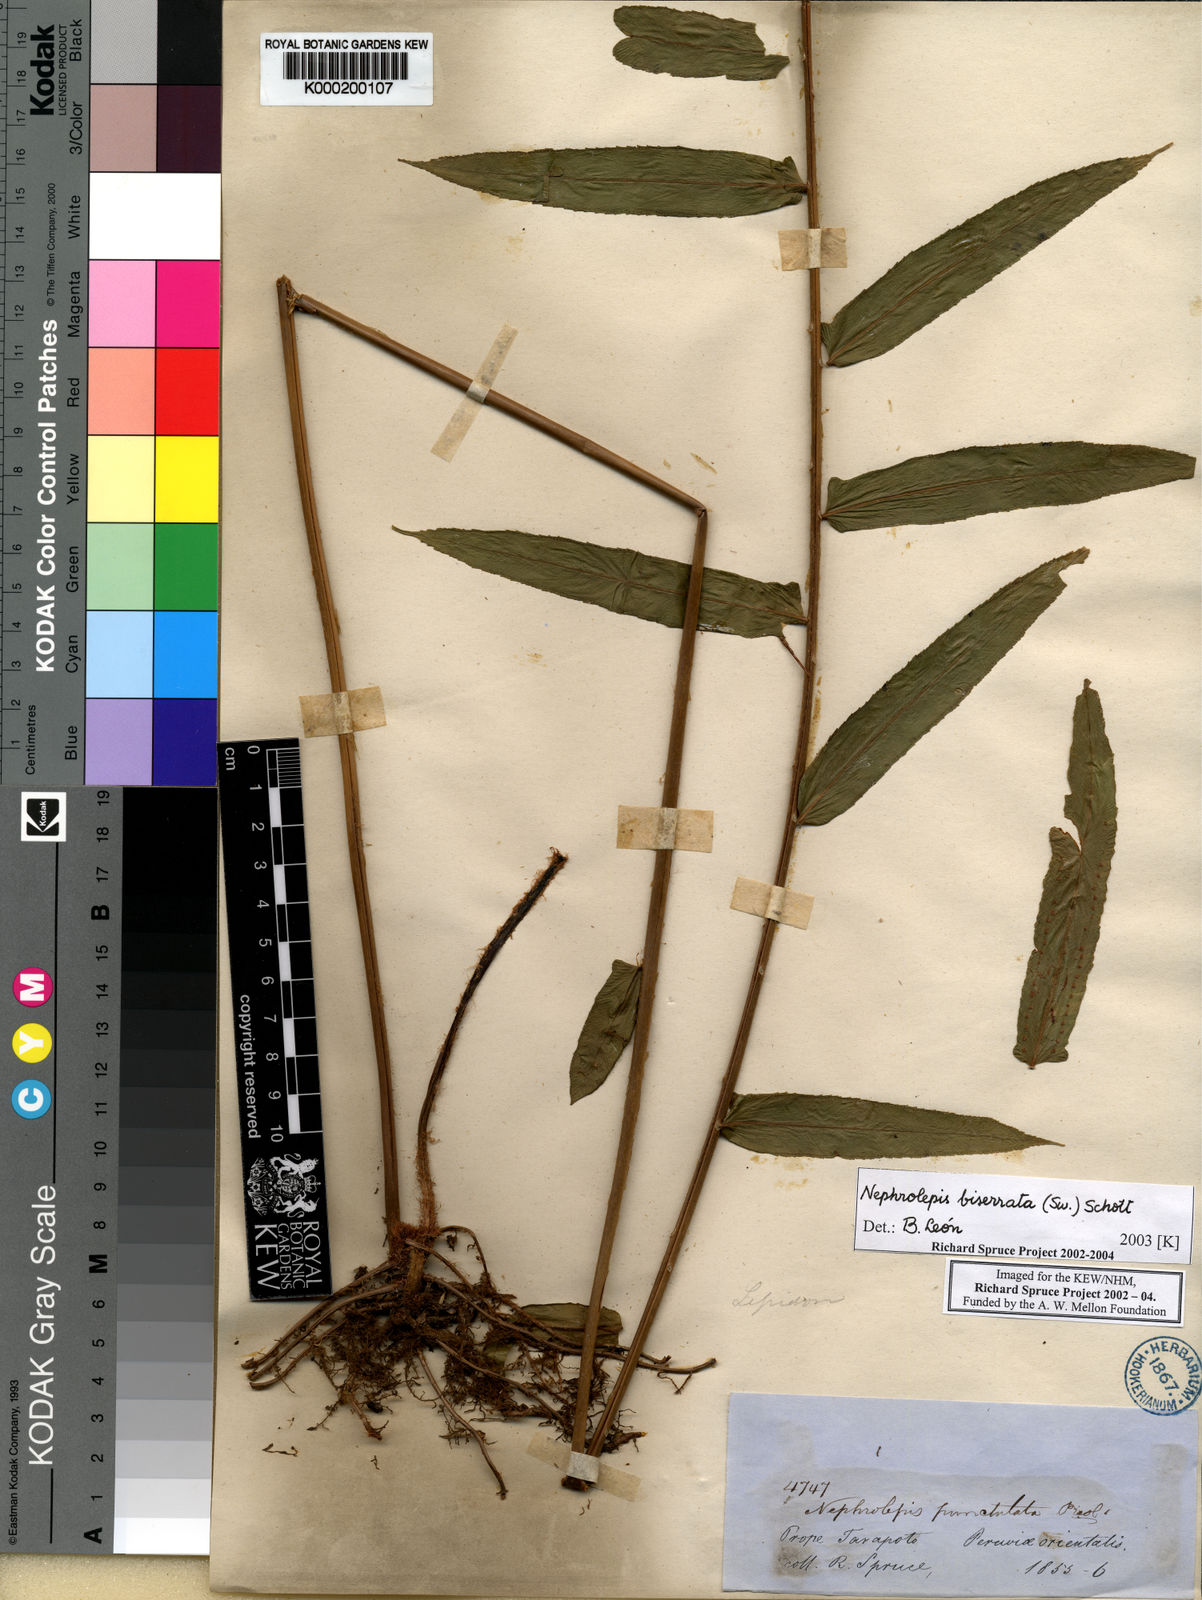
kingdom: Plantae
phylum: Tracheophyta
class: Polypodiopsida
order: Polypodiales
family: Nephrolepidaceae
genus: Nephrolepis
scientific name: Nephrolepis biserrata
